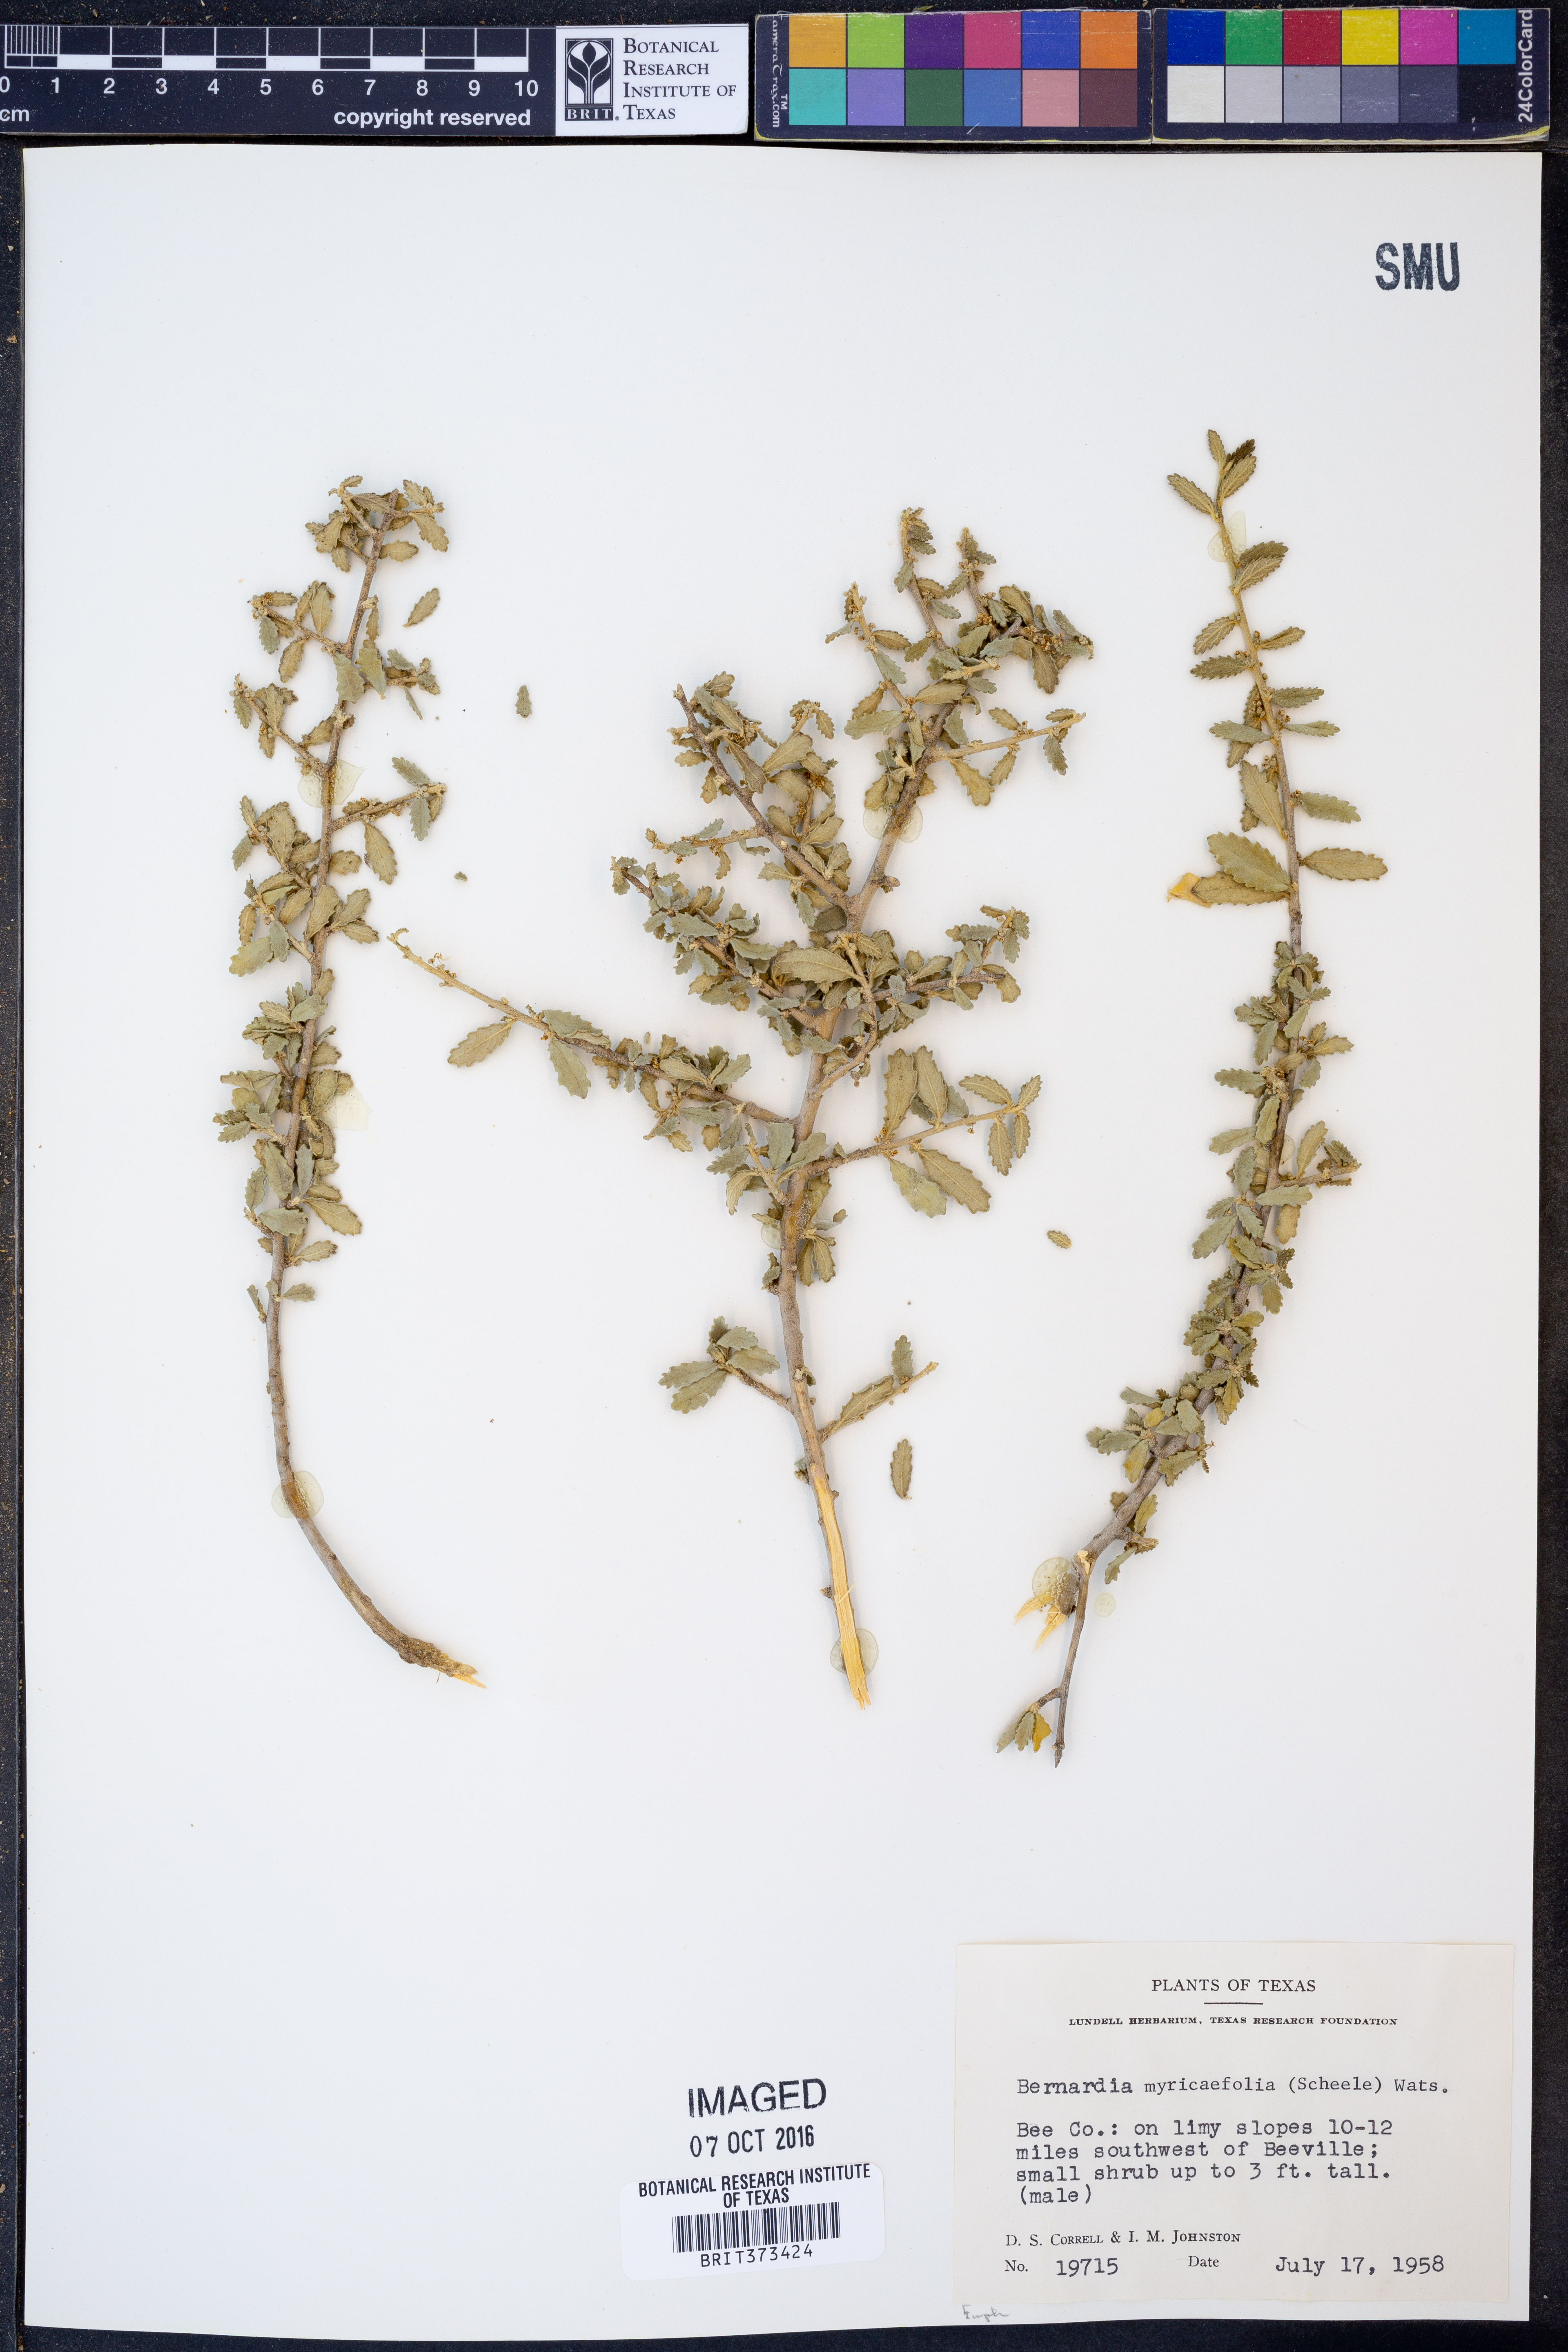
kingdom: Plantae
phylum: Tracheophyta
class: Magnoliopsida
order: Malpighiales
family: Euphorbiaceae
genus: Bernardia
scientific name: Bernardia myricifolia
